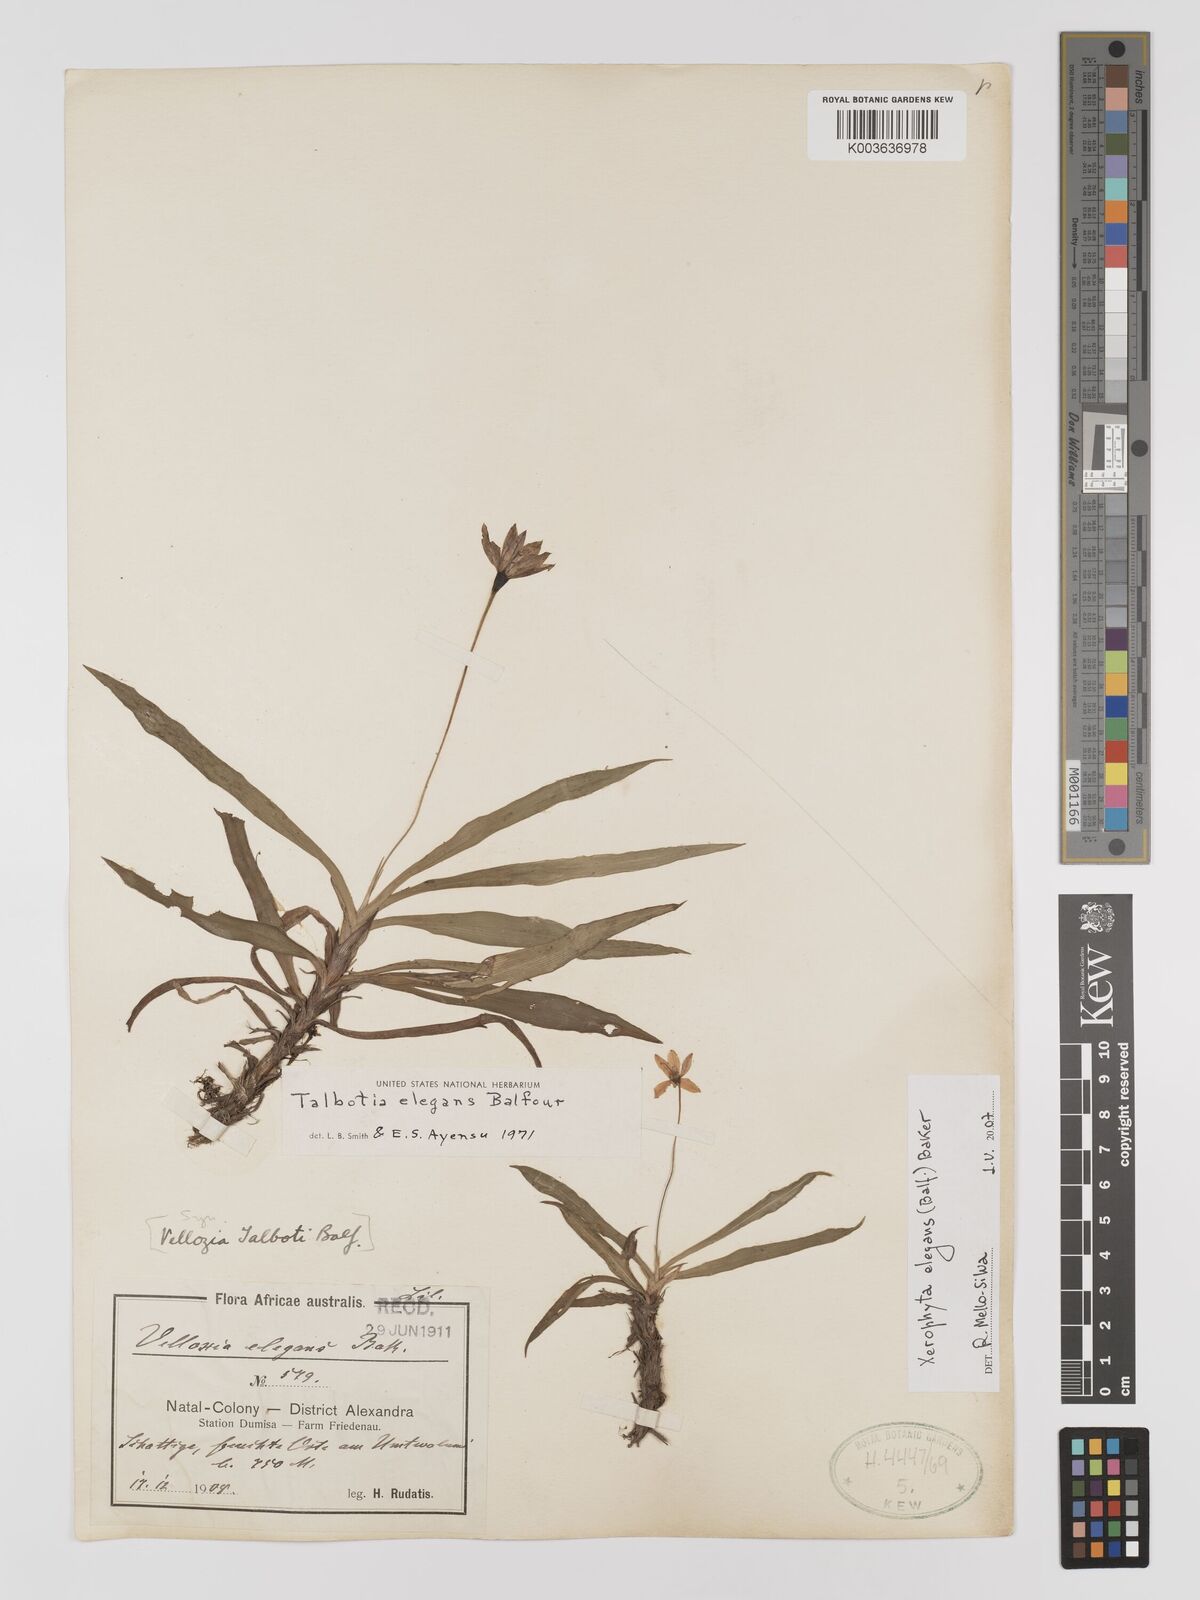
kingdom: Plantae
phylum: Tracheophyta
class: Liliopsida
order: Pandanales
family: Velloziaceae
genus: Xerophyta
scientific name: Xerophyta elegans
